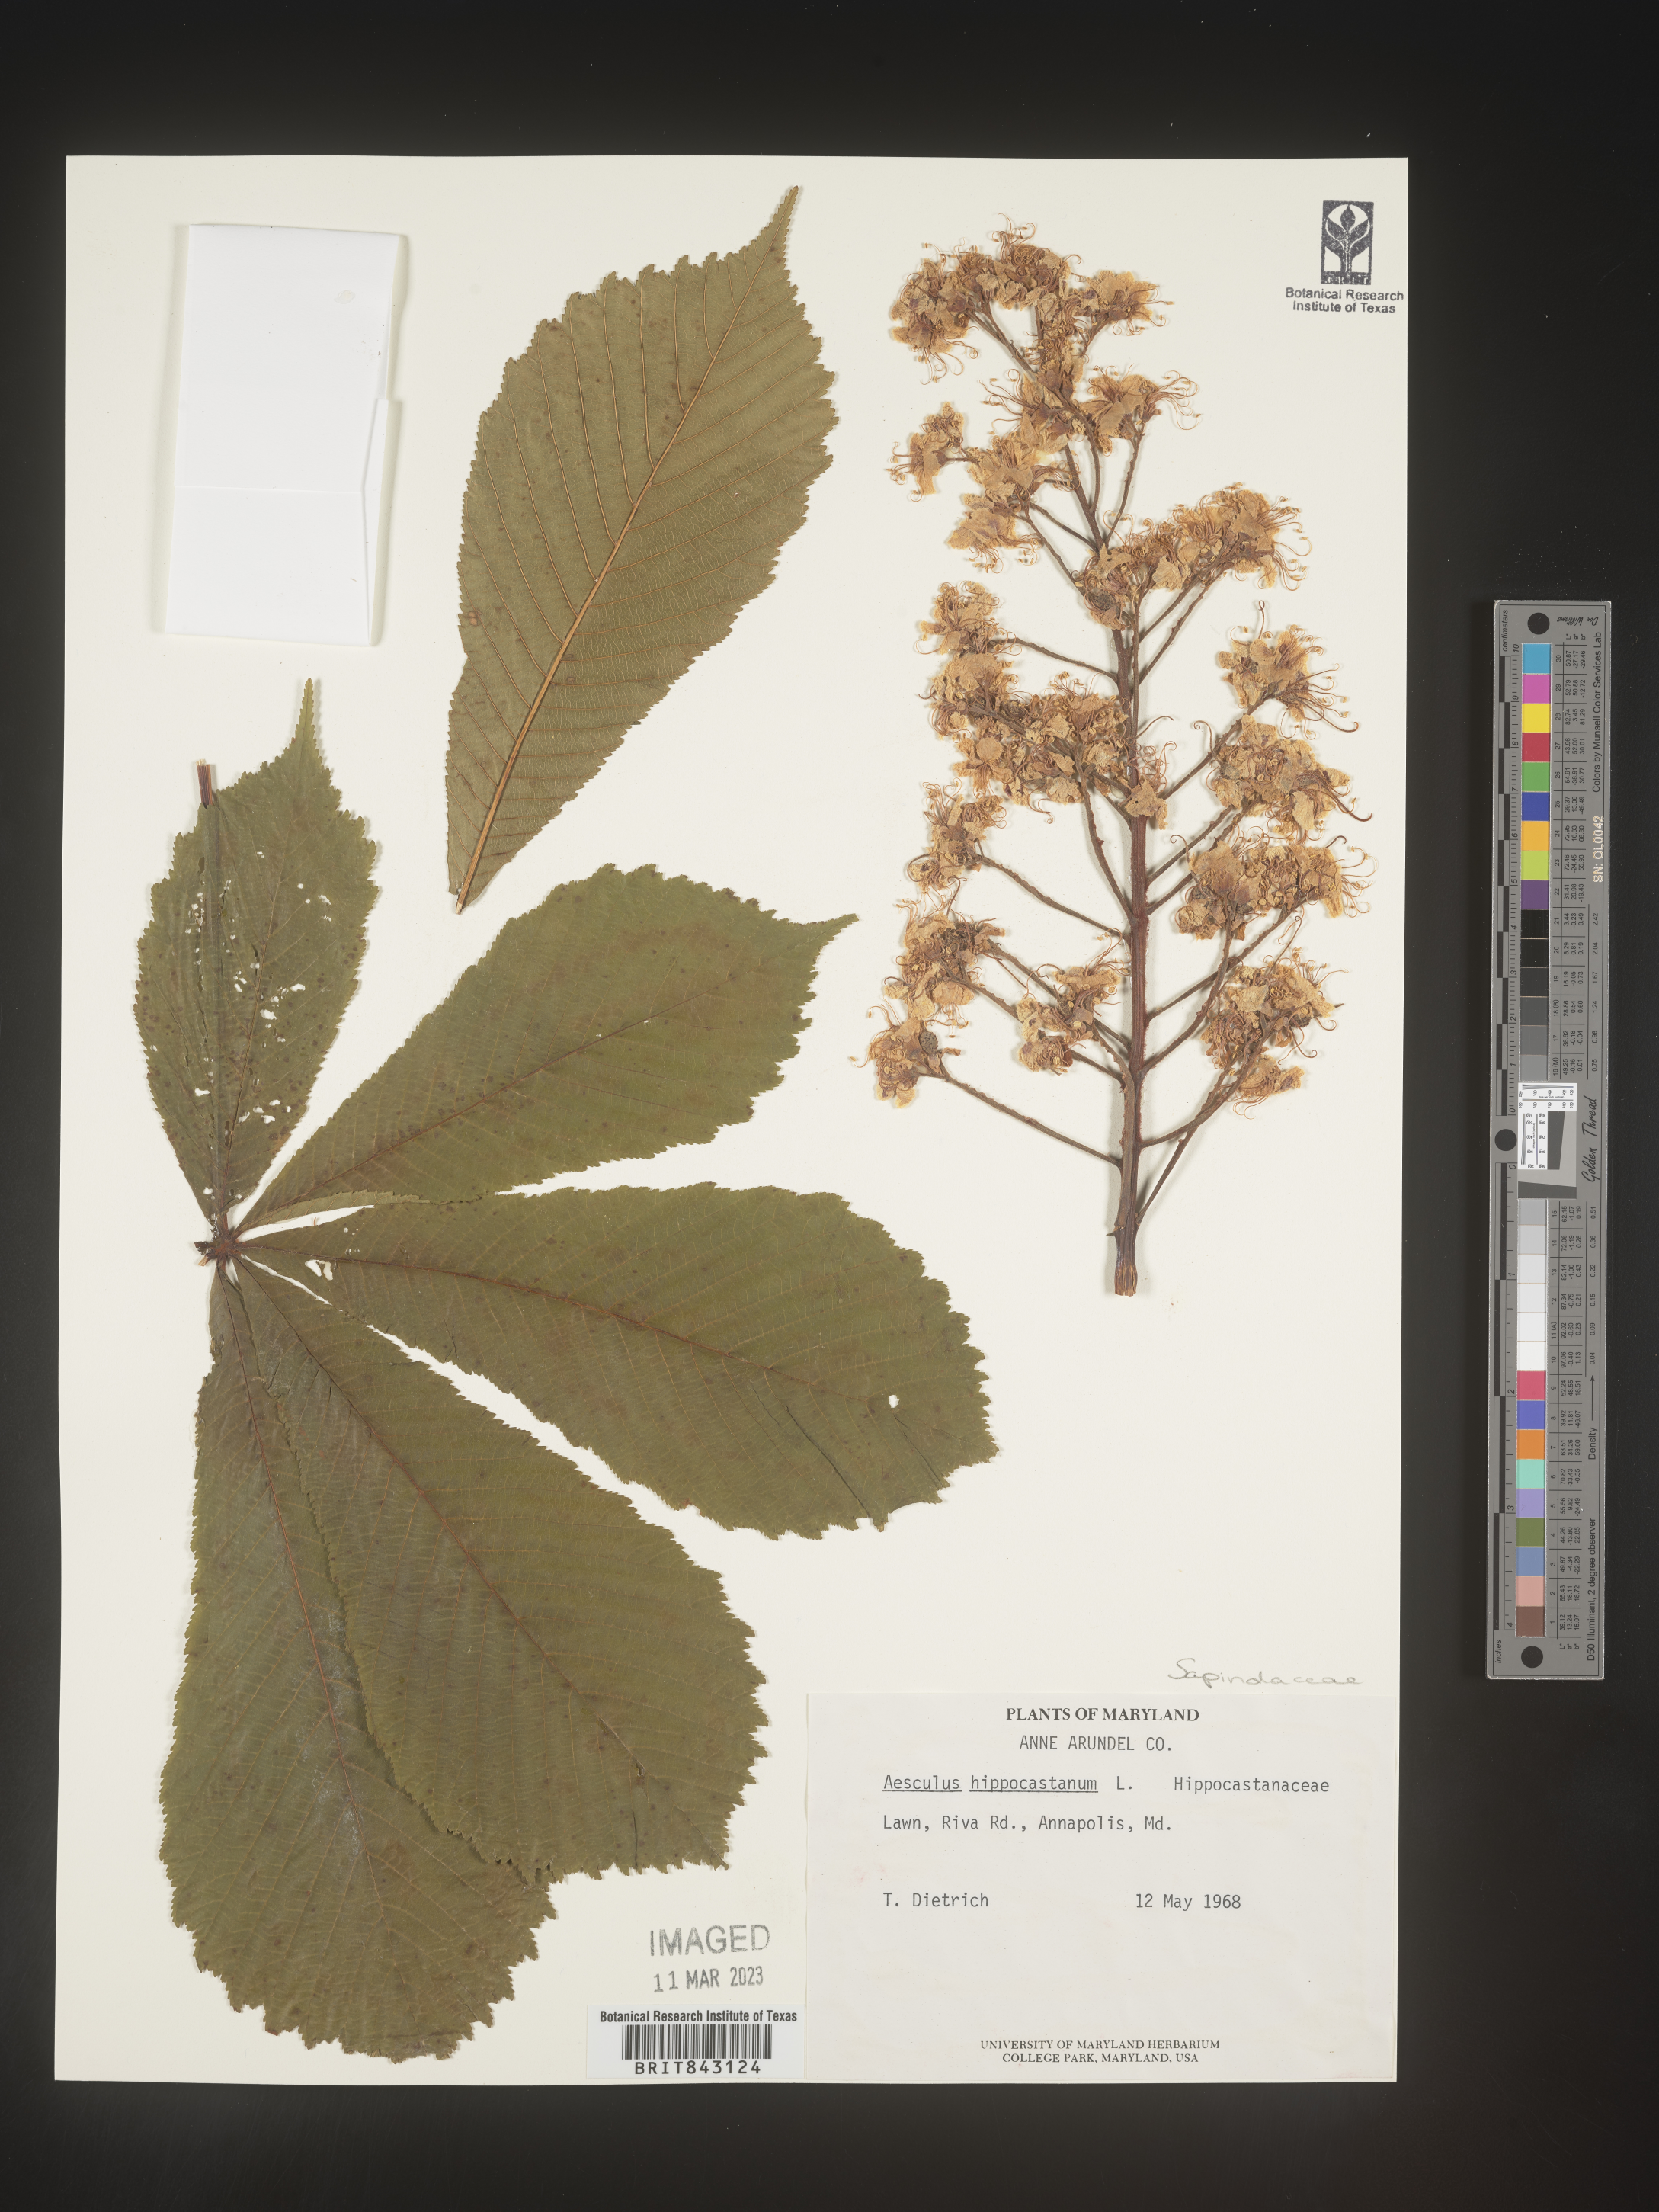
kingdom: Plantae
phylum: Tracheophyta
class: Magnoliopsida
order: Sapindales
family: Sapindaceae
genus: Aesculus
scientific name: Aesculus
